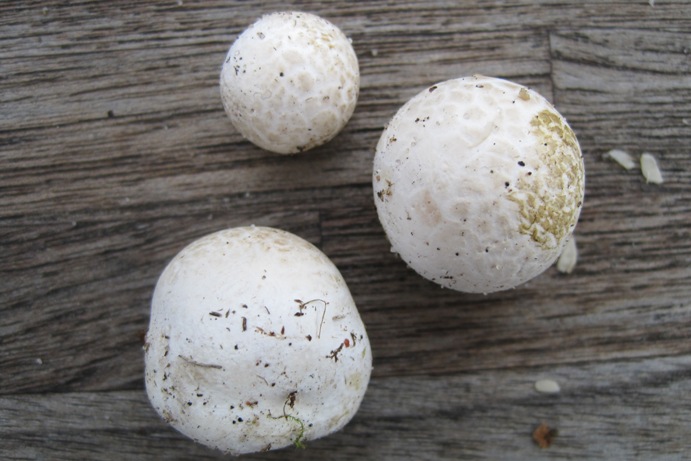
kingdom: Fungi
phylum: Basidiomycota
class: Agaricomycetes
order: Agaricales
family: Lycoperdaceae
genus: Bovista
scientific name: Bovista plumbea
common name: blygrå bovist
